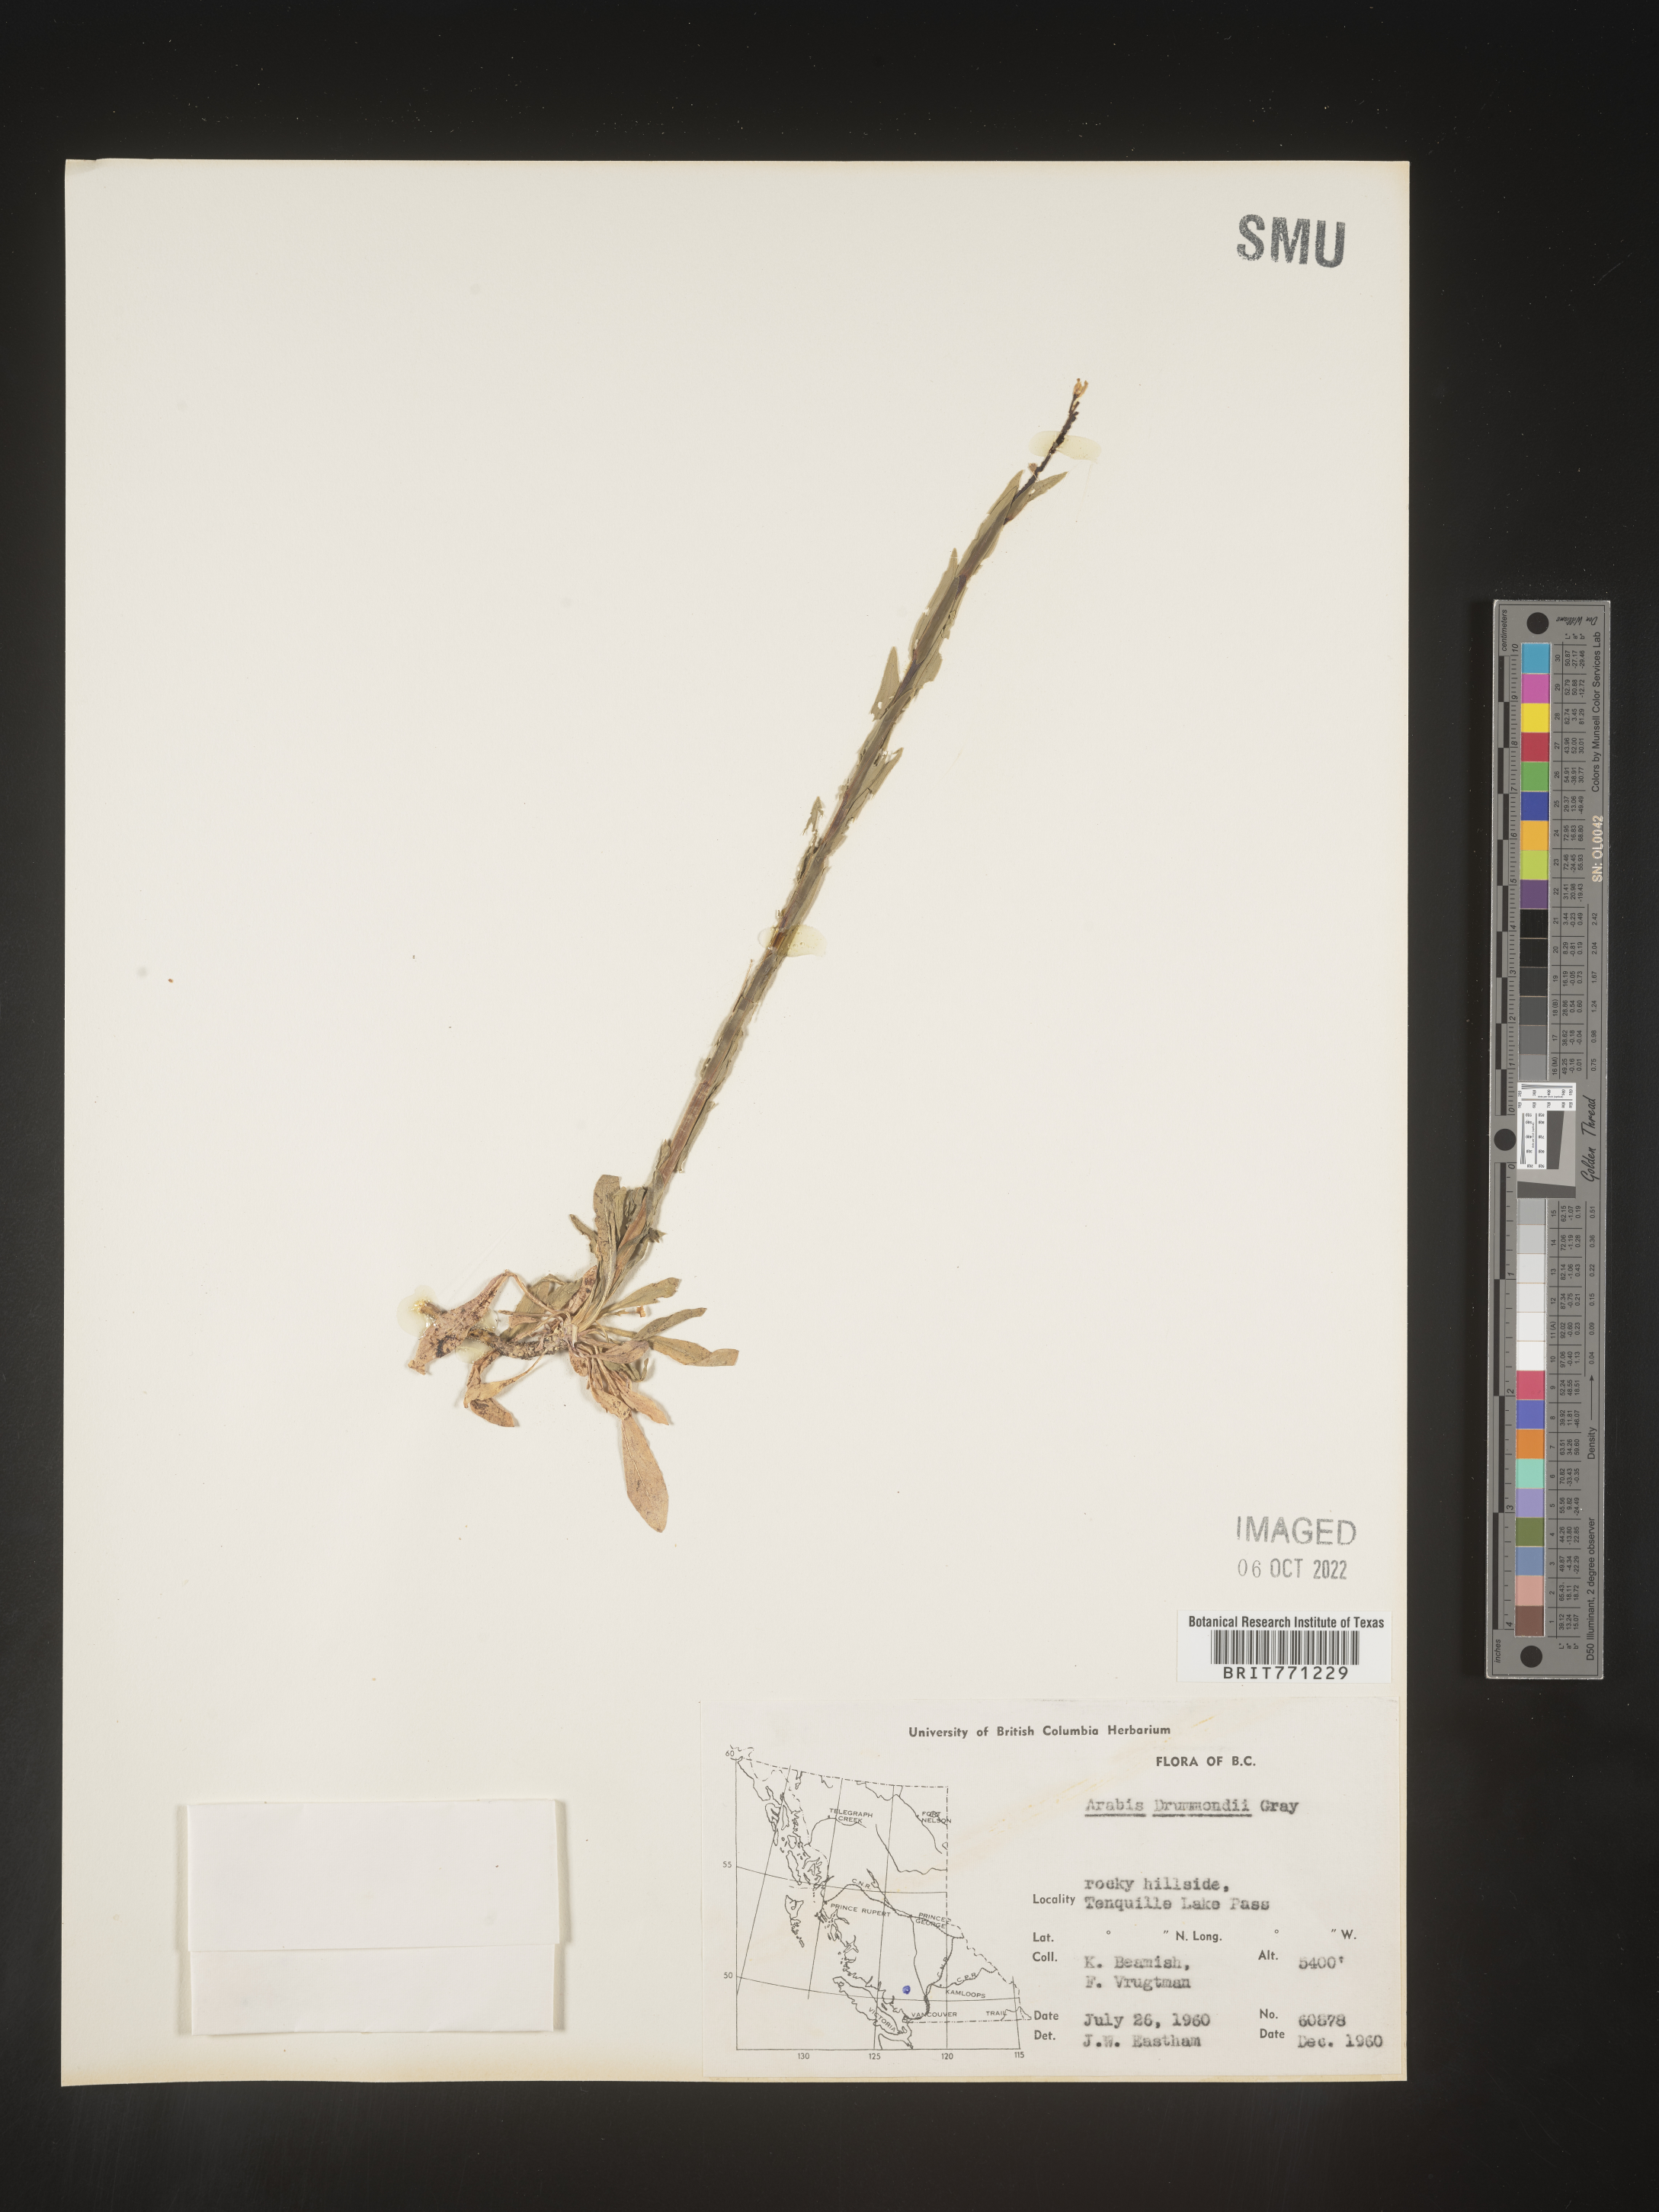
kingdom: Plantae
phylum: Tracheophyta
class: Magnoliopsida
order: Brassicales
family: Brassicaceae
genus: Boechera
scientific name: Boechera stricta
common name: Canadian rockcress
